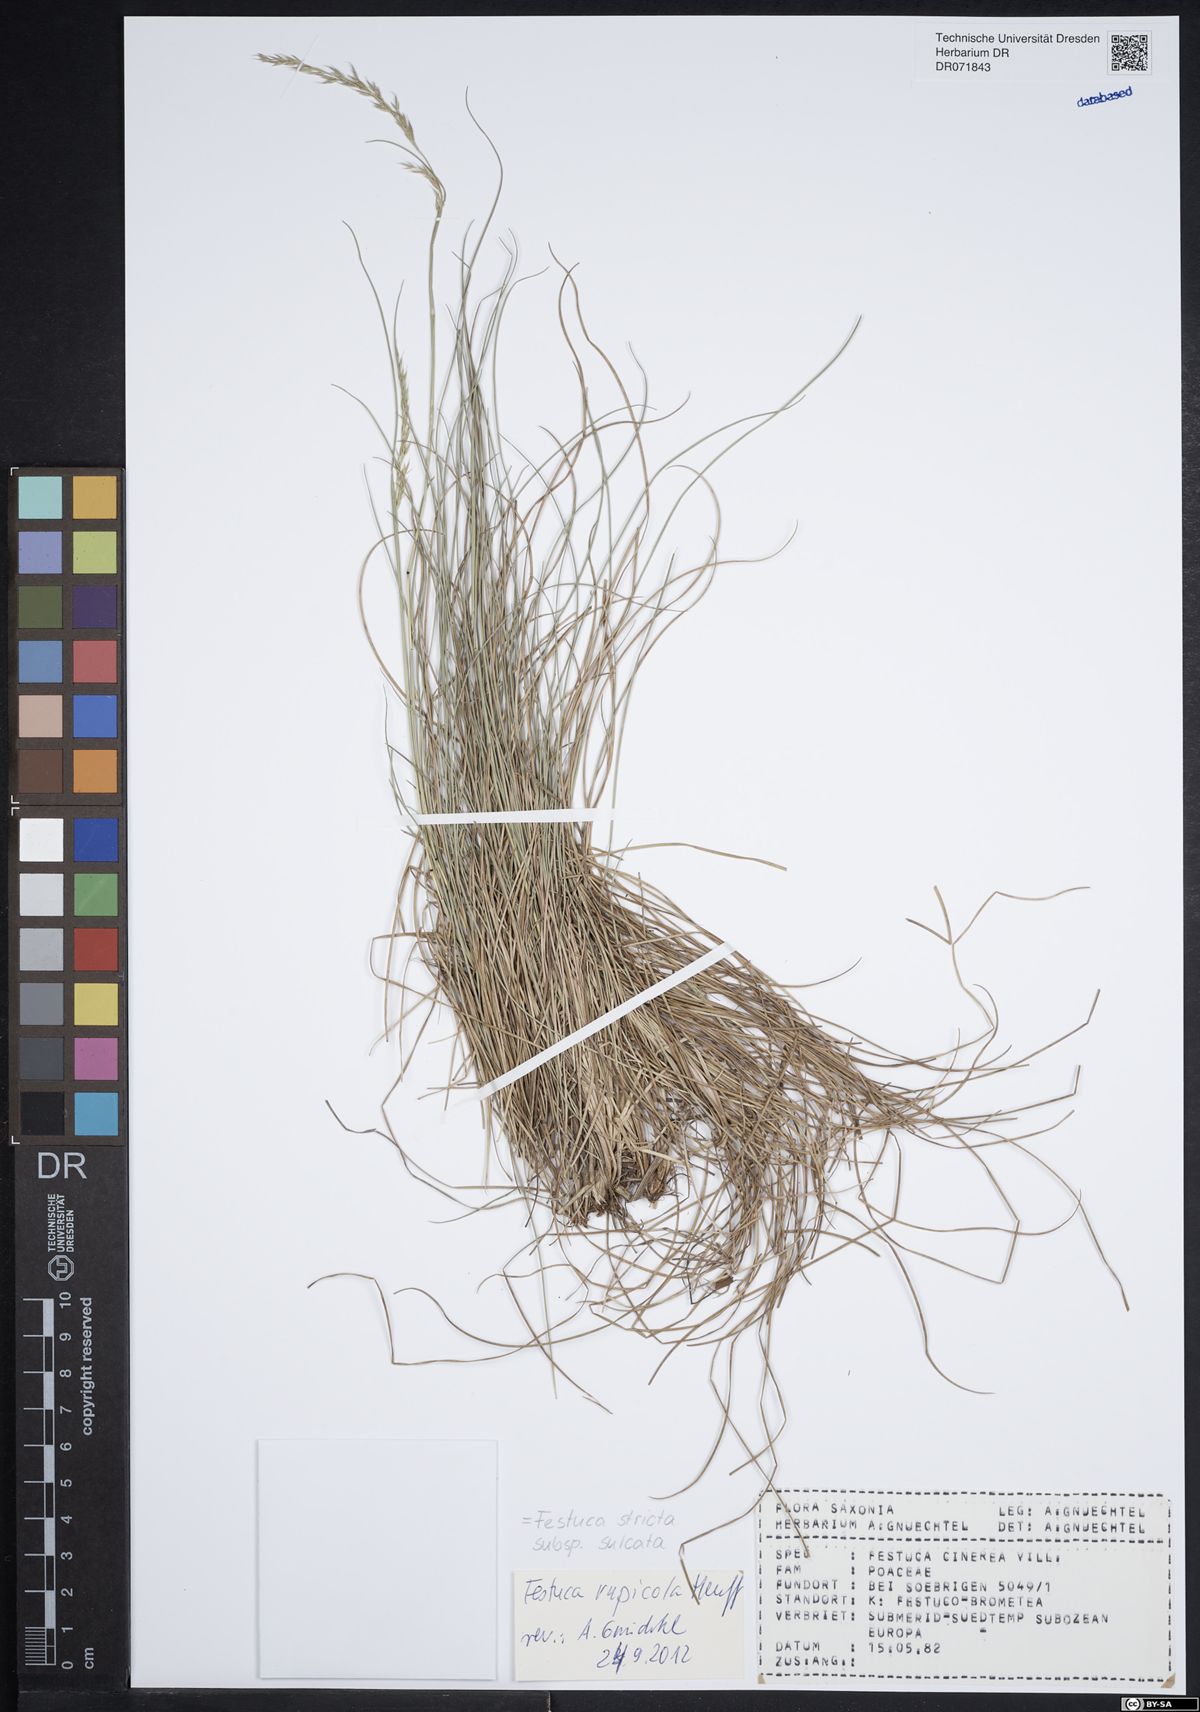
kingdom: Plantae
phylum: Tracheophyta
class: Liliopsida
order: Poales
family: Poaceae
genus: Festuca
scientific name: Festuca rupicola
